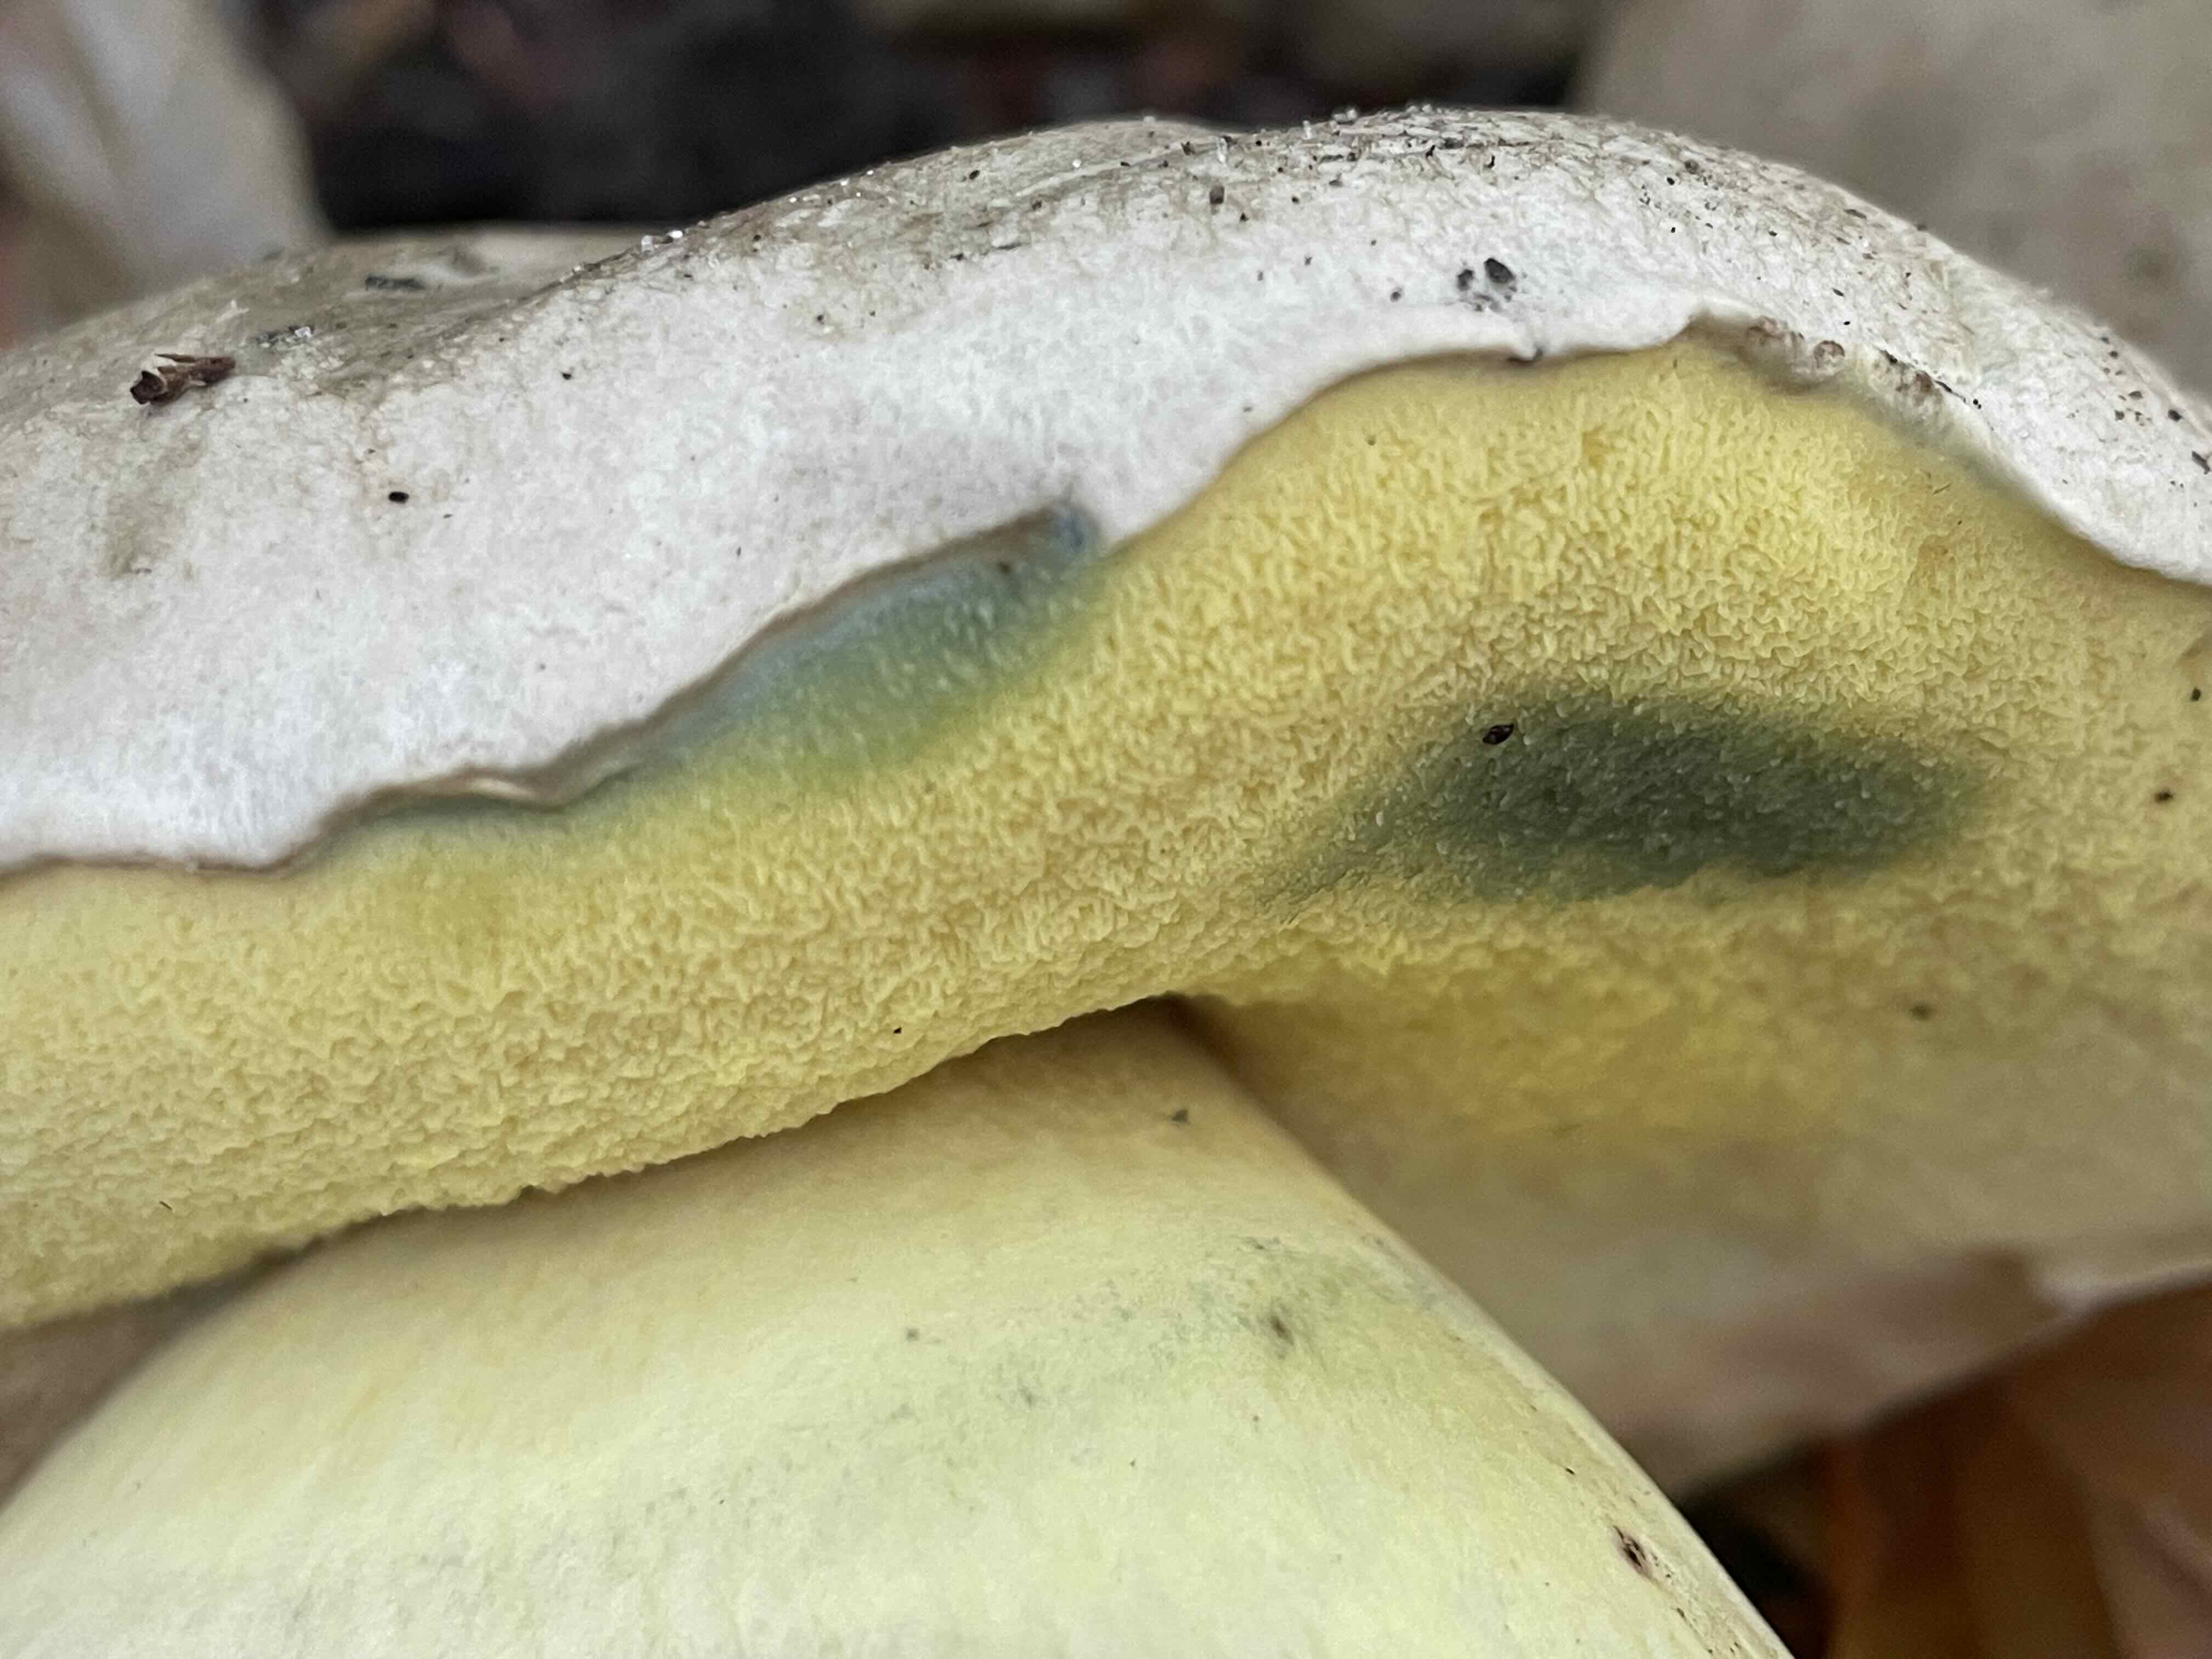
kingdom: Fungi
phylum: Basidiomycota
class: Agaricomycetes
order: Boletales
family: Boletaceae
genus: Caloboletus
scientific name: Caloboletus radicans
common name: rod-rørhat
